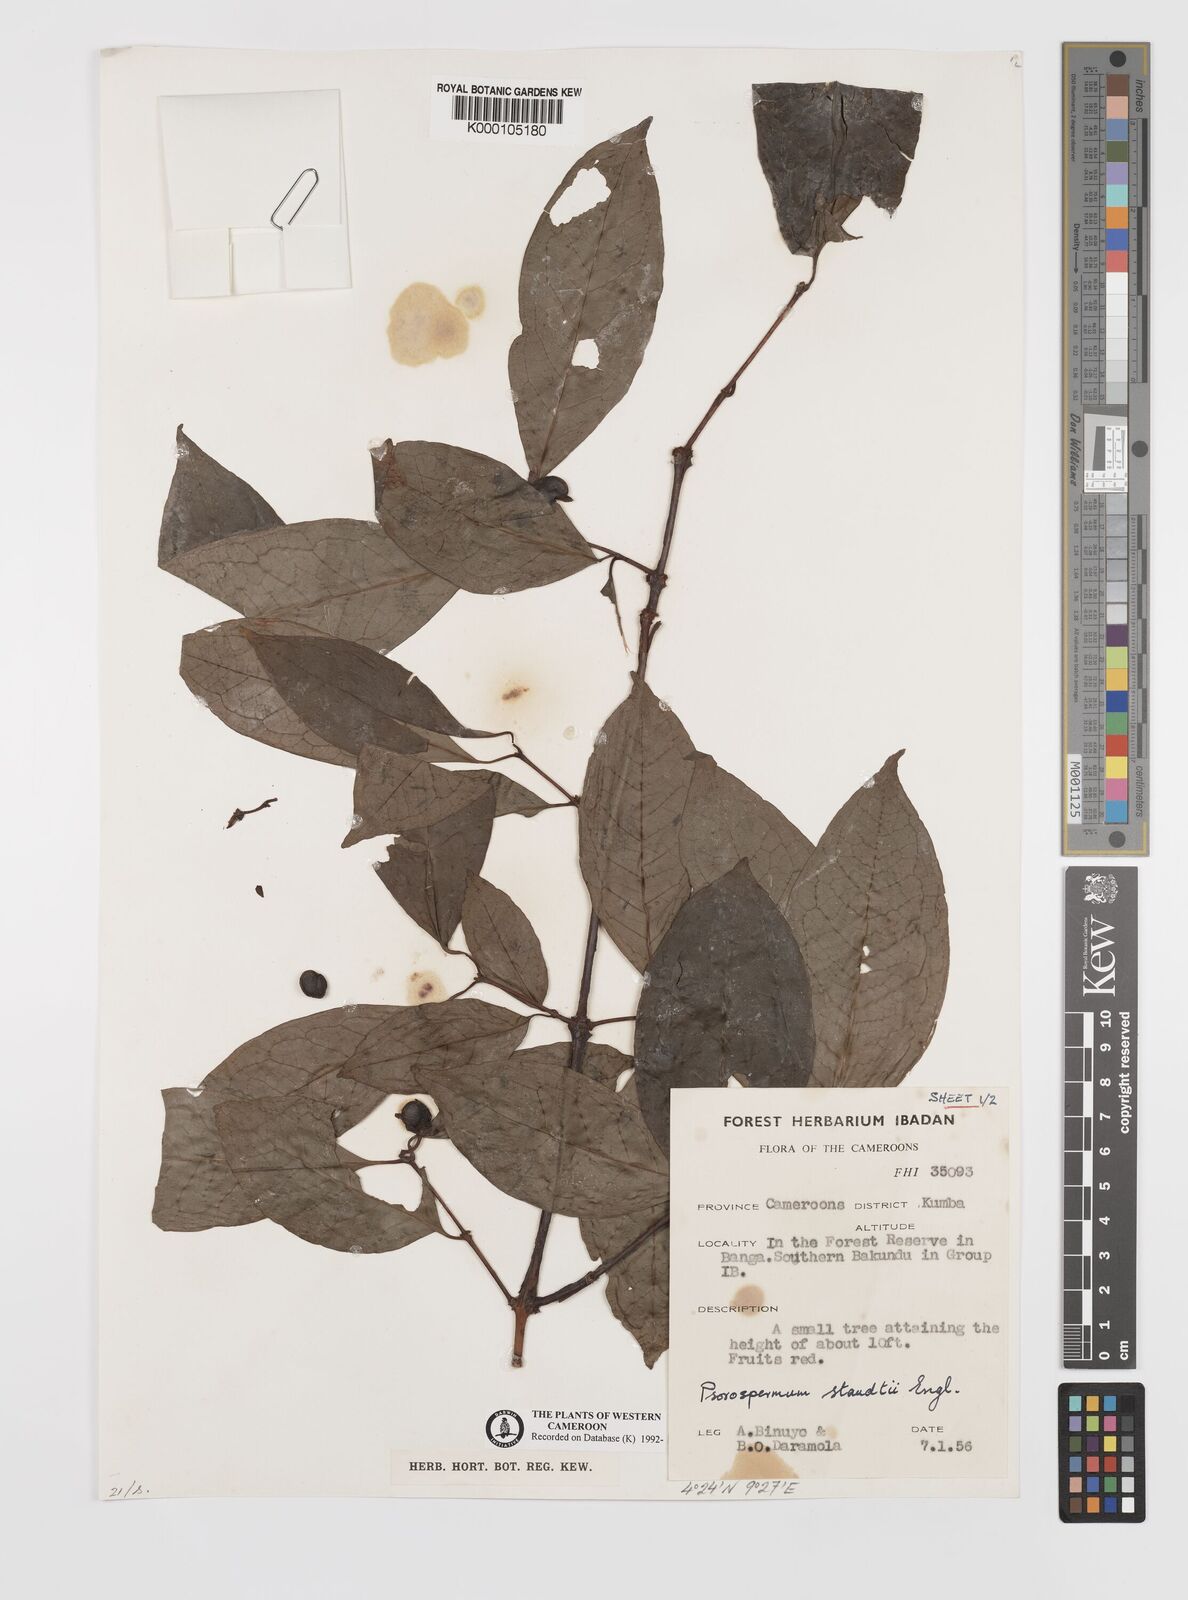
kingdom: Plantae
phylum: Tracheophyta
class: Magnoliopsida
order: Malpighiales
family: Hypericaceae
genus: Psorospermum
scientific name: Psorospermum staudtii
